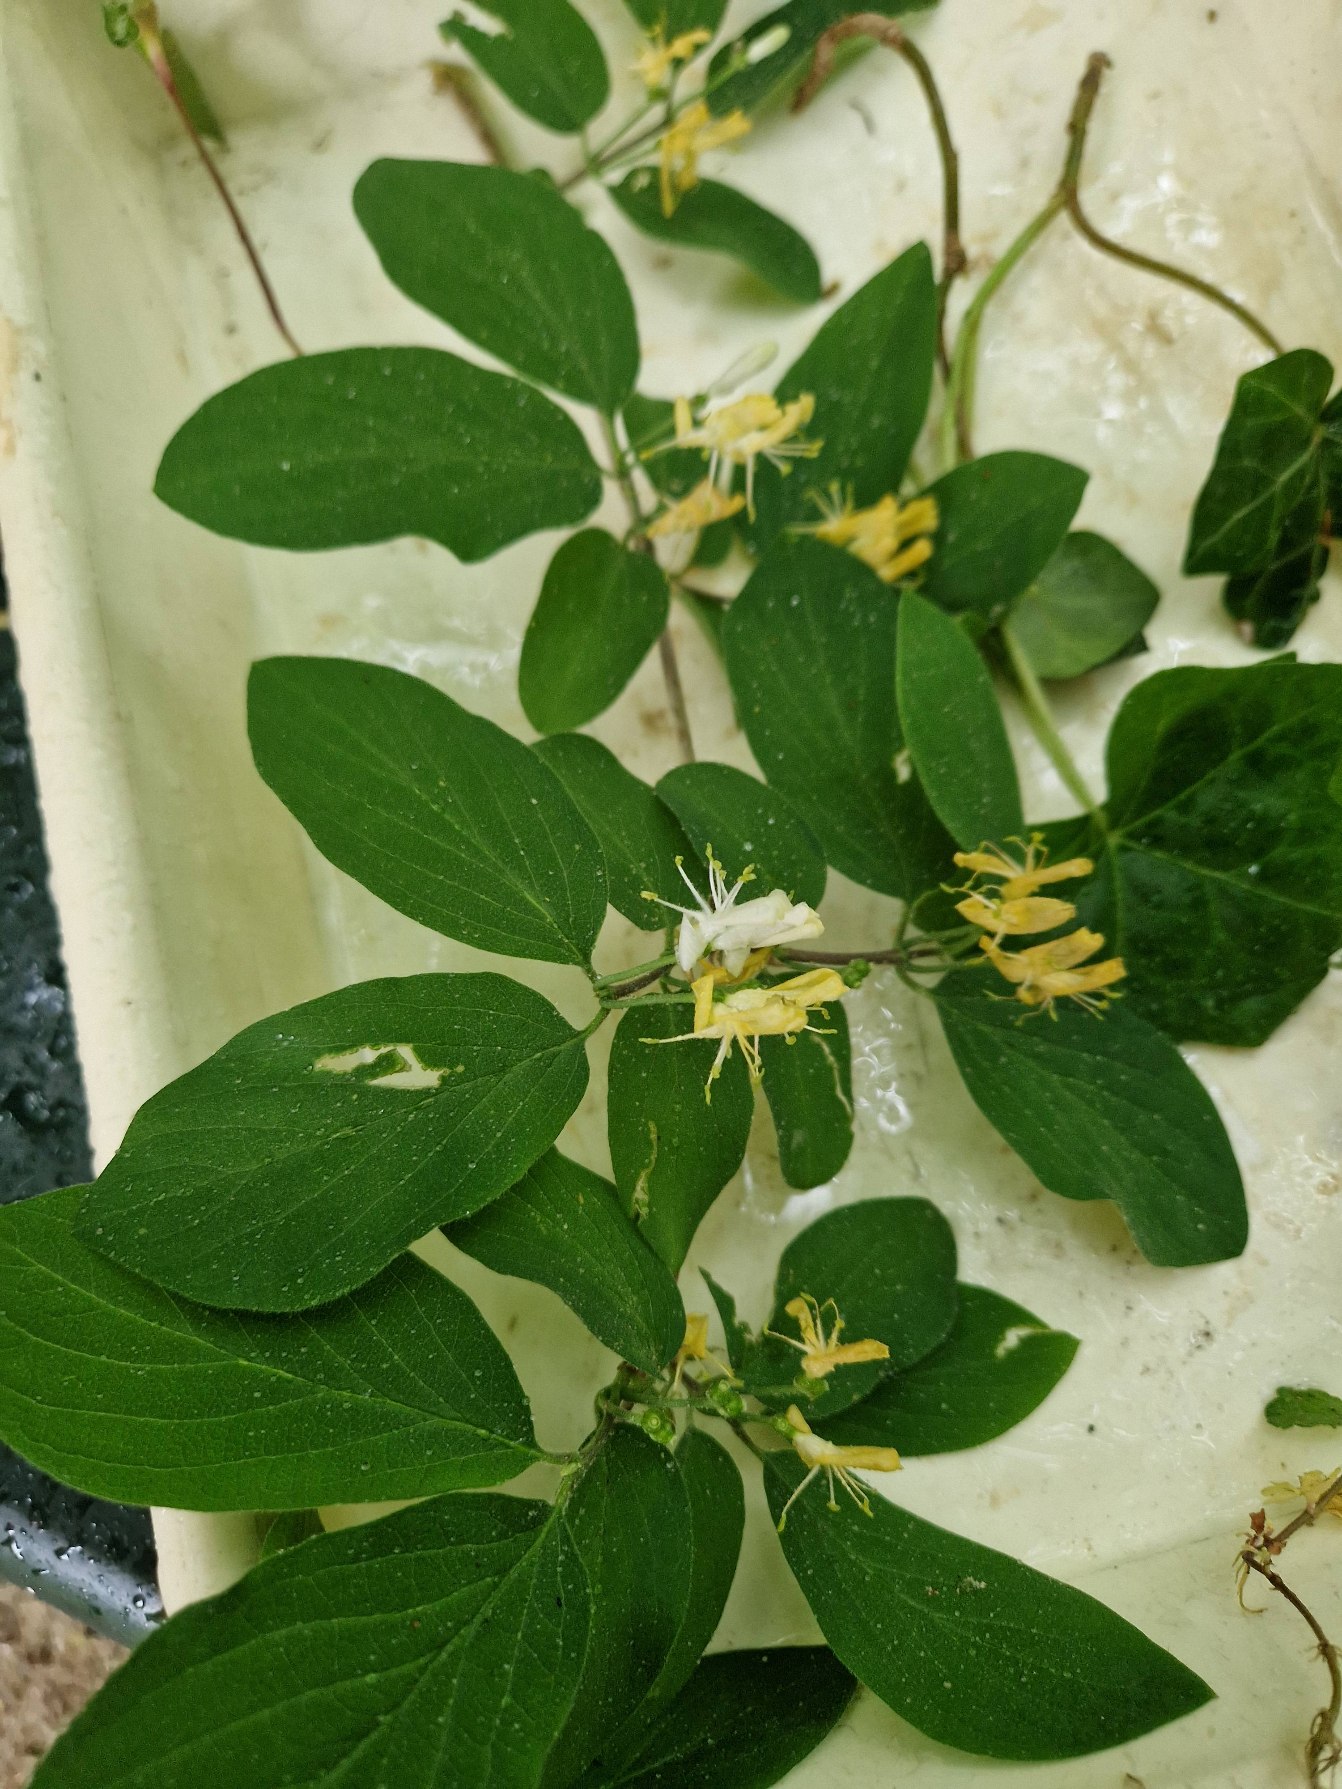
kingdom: Plantae
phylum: Tracheophyta
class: Magnoliopsida
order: Dipsacales
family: Caprifoliaceae
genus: Lonicera
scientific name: Lonicera xylosteum
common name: Dunet gedeblad
